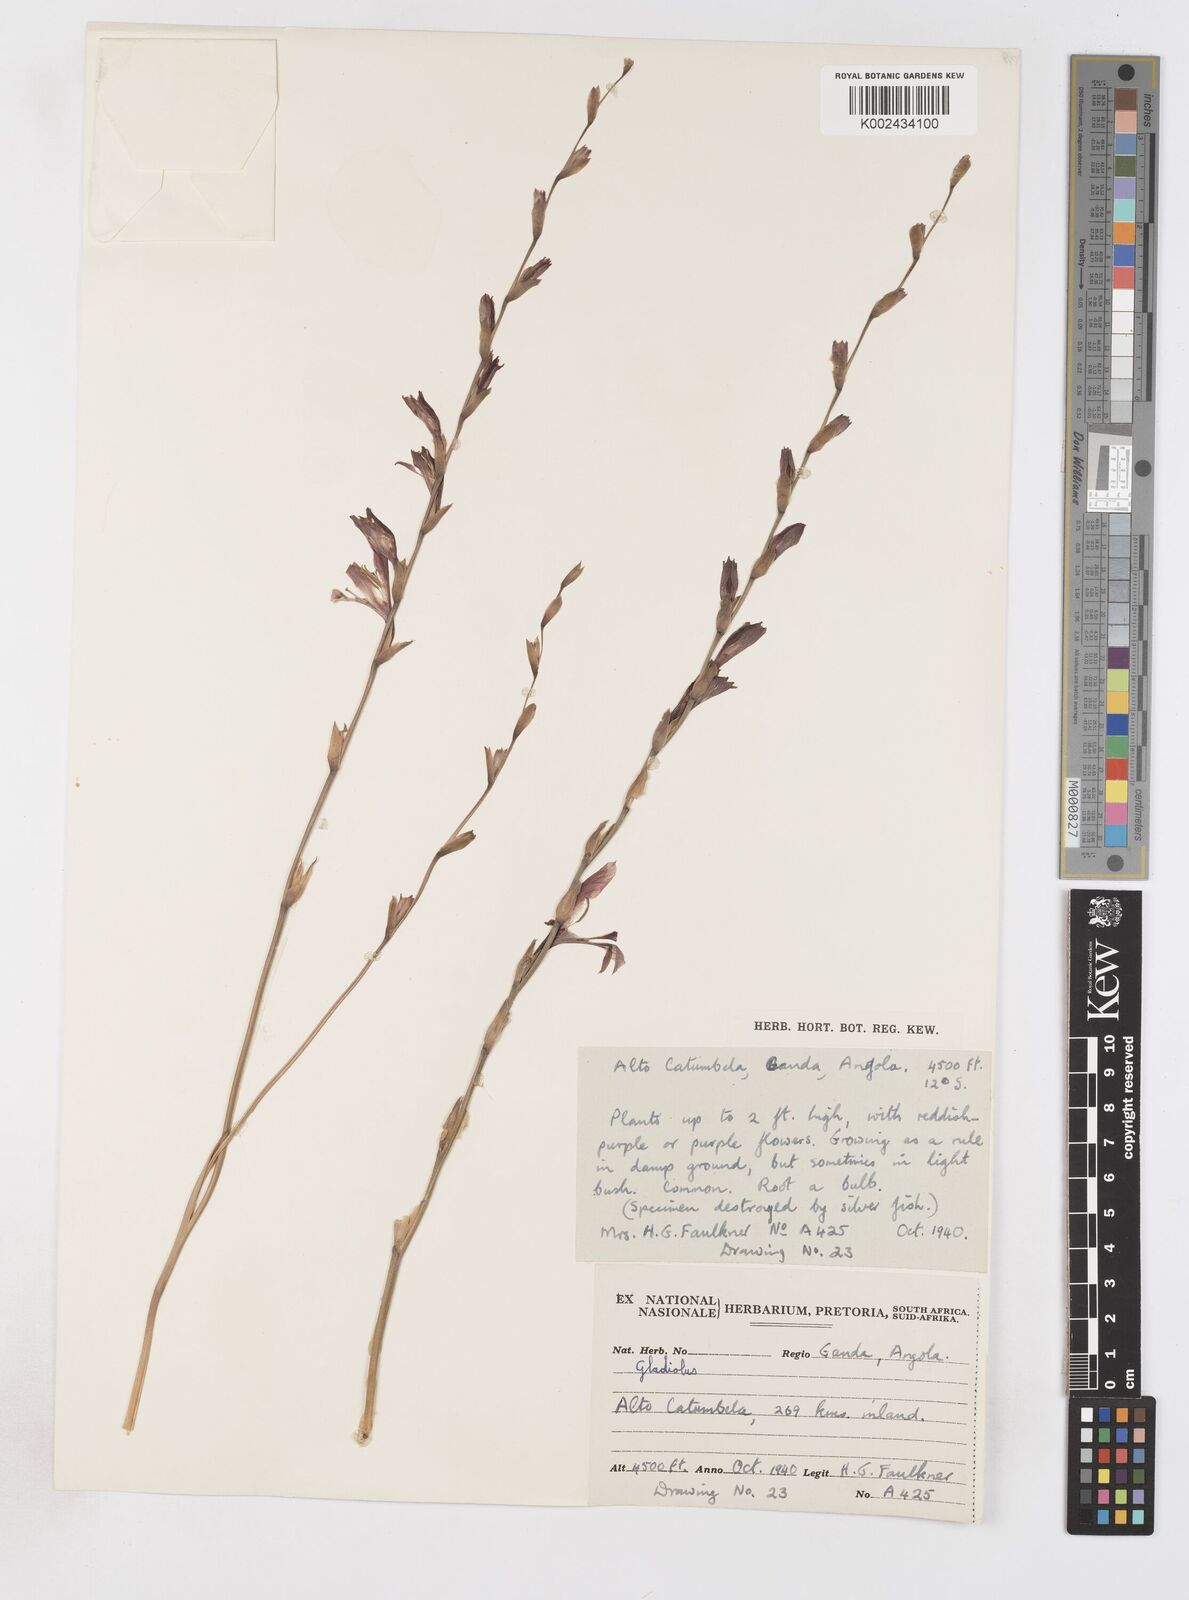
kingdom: Plantae
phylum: Tracheophyta
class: Liliopsida
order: Asparagales
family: Iridaceae
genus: Gladiolus
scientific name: Gladiolus atropurpureus
